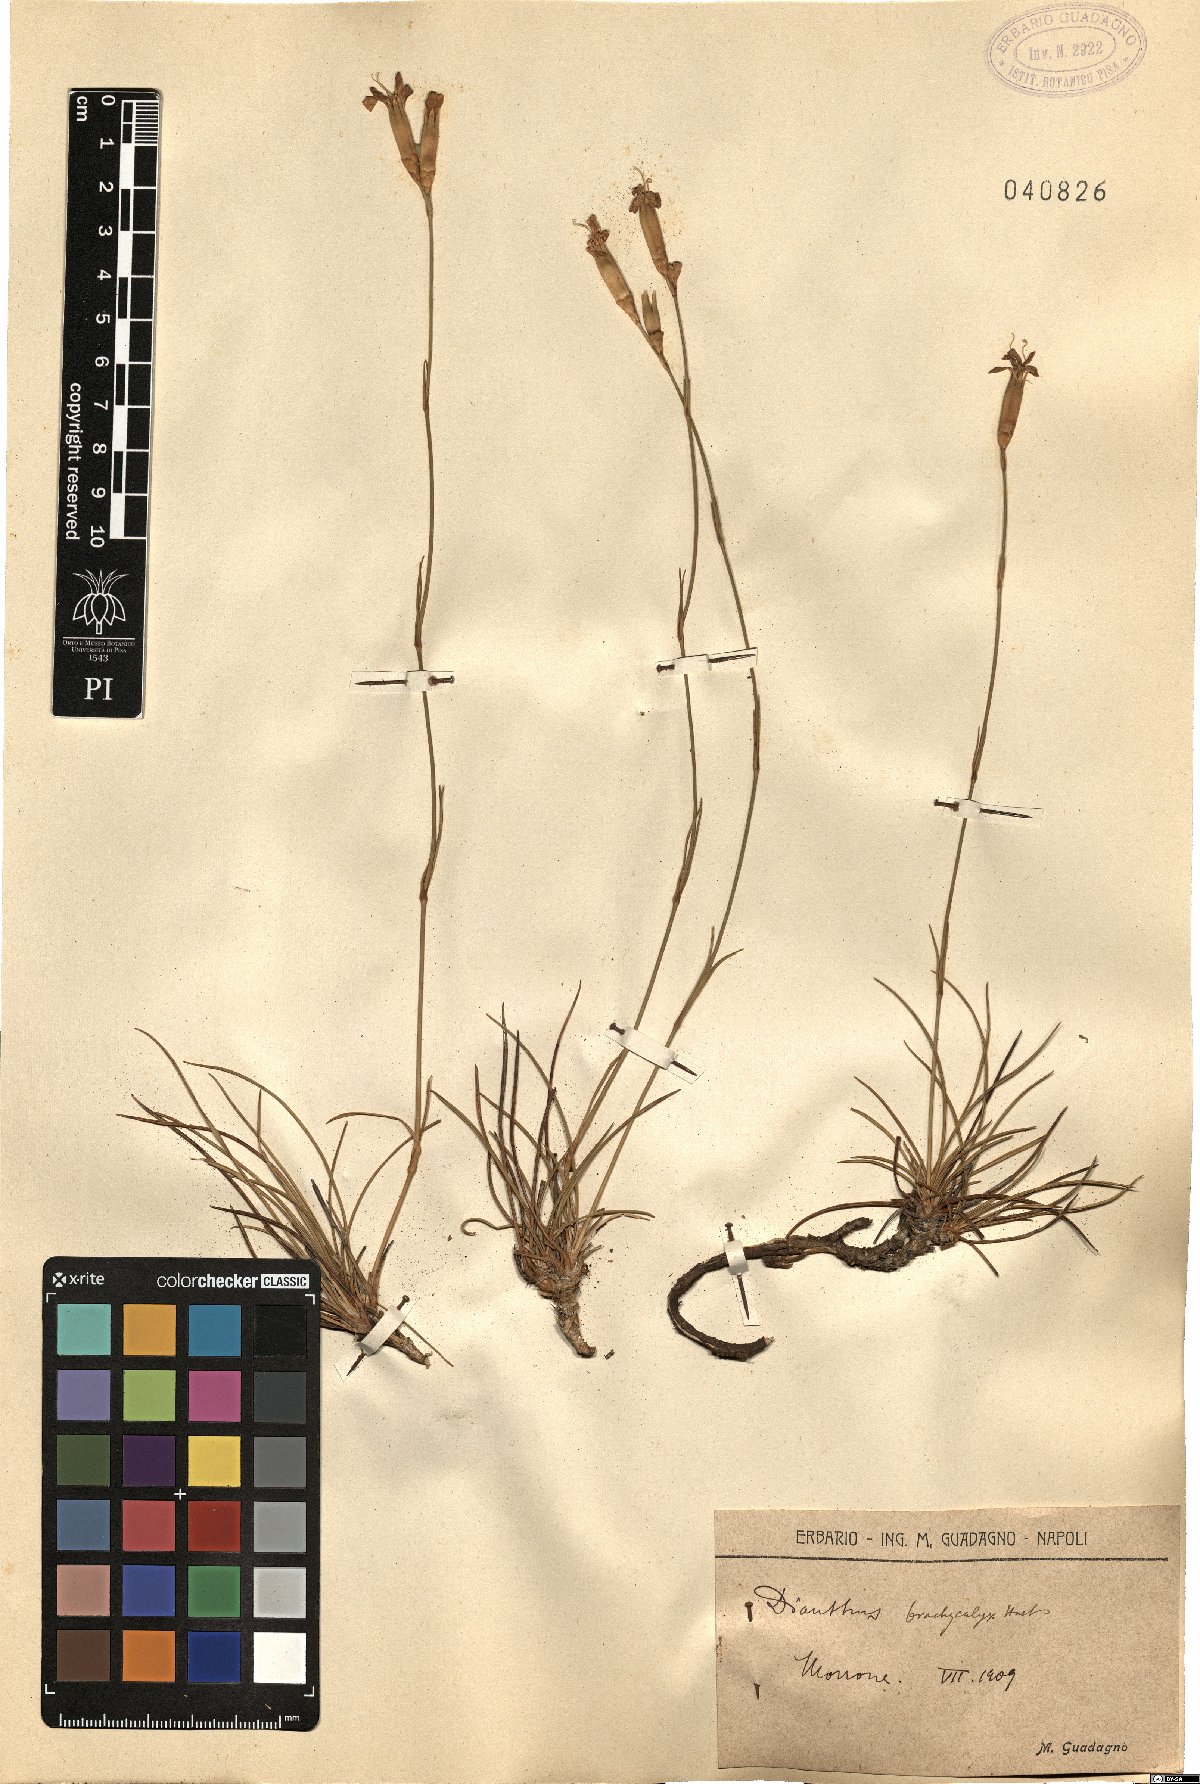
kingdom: Plantae
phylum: Tracheophyta
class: Magnoliopsida
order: Caryophyllales
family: Caryophyllaceae
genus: Dianthus
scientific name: Dianthus brachycalyx
